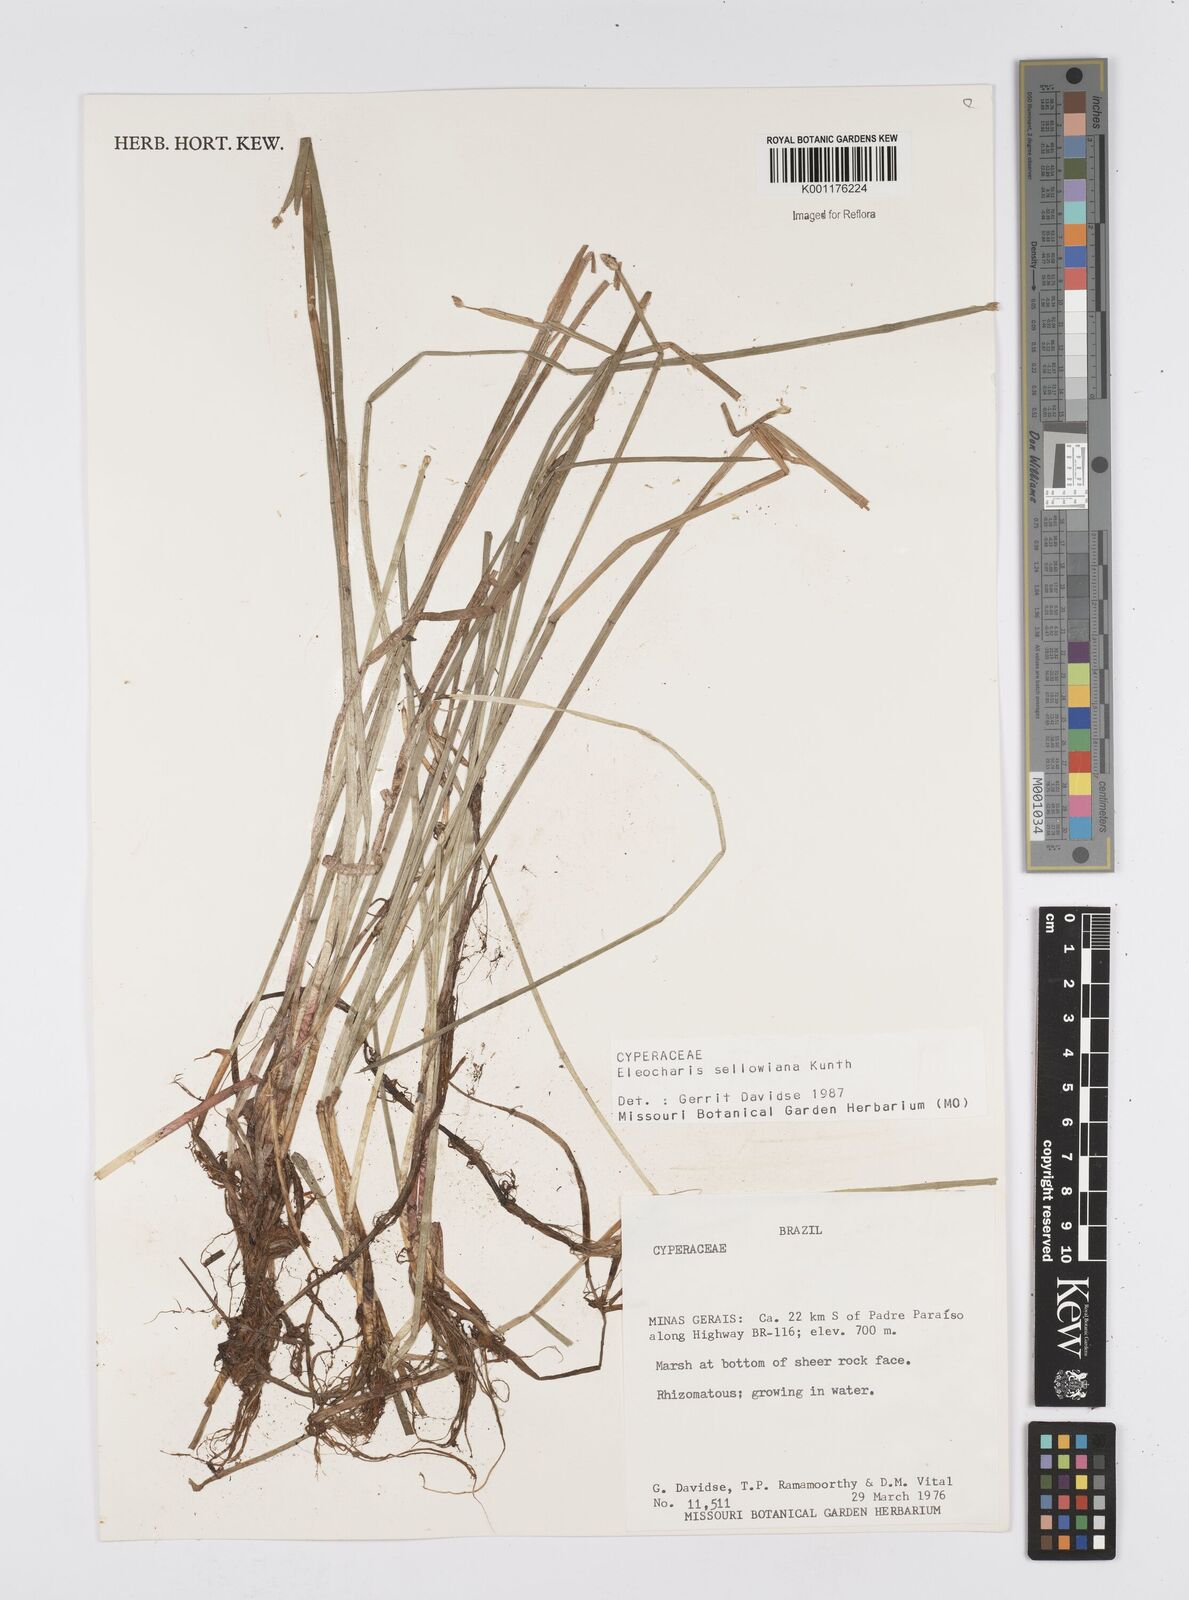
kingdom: Plantae
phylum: Tracheophyta
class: Liliopsida
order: Poales
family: Cyperaceae
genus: Eleocharis
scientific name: Eleocharis sellowiana
